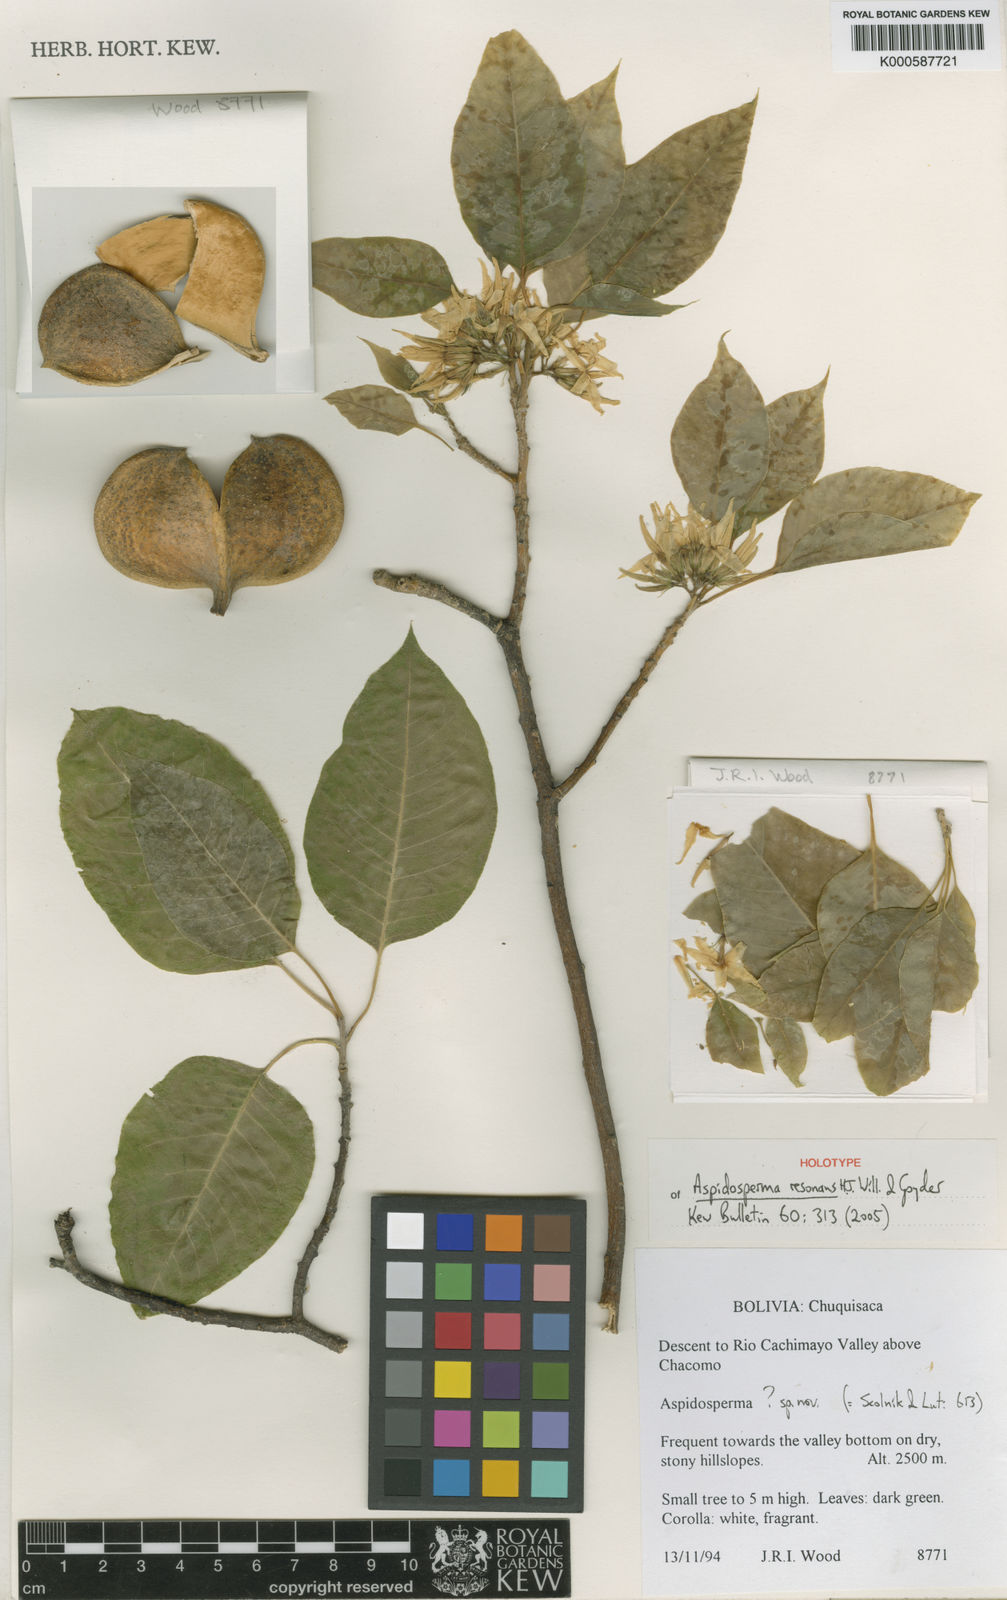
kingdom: Plantae
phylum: Tracheophyta
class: Magnoliopsida
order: Gentianales
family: Apocynaceae
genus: Aspidosperma
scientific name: Aspidosperma pyrifolium
